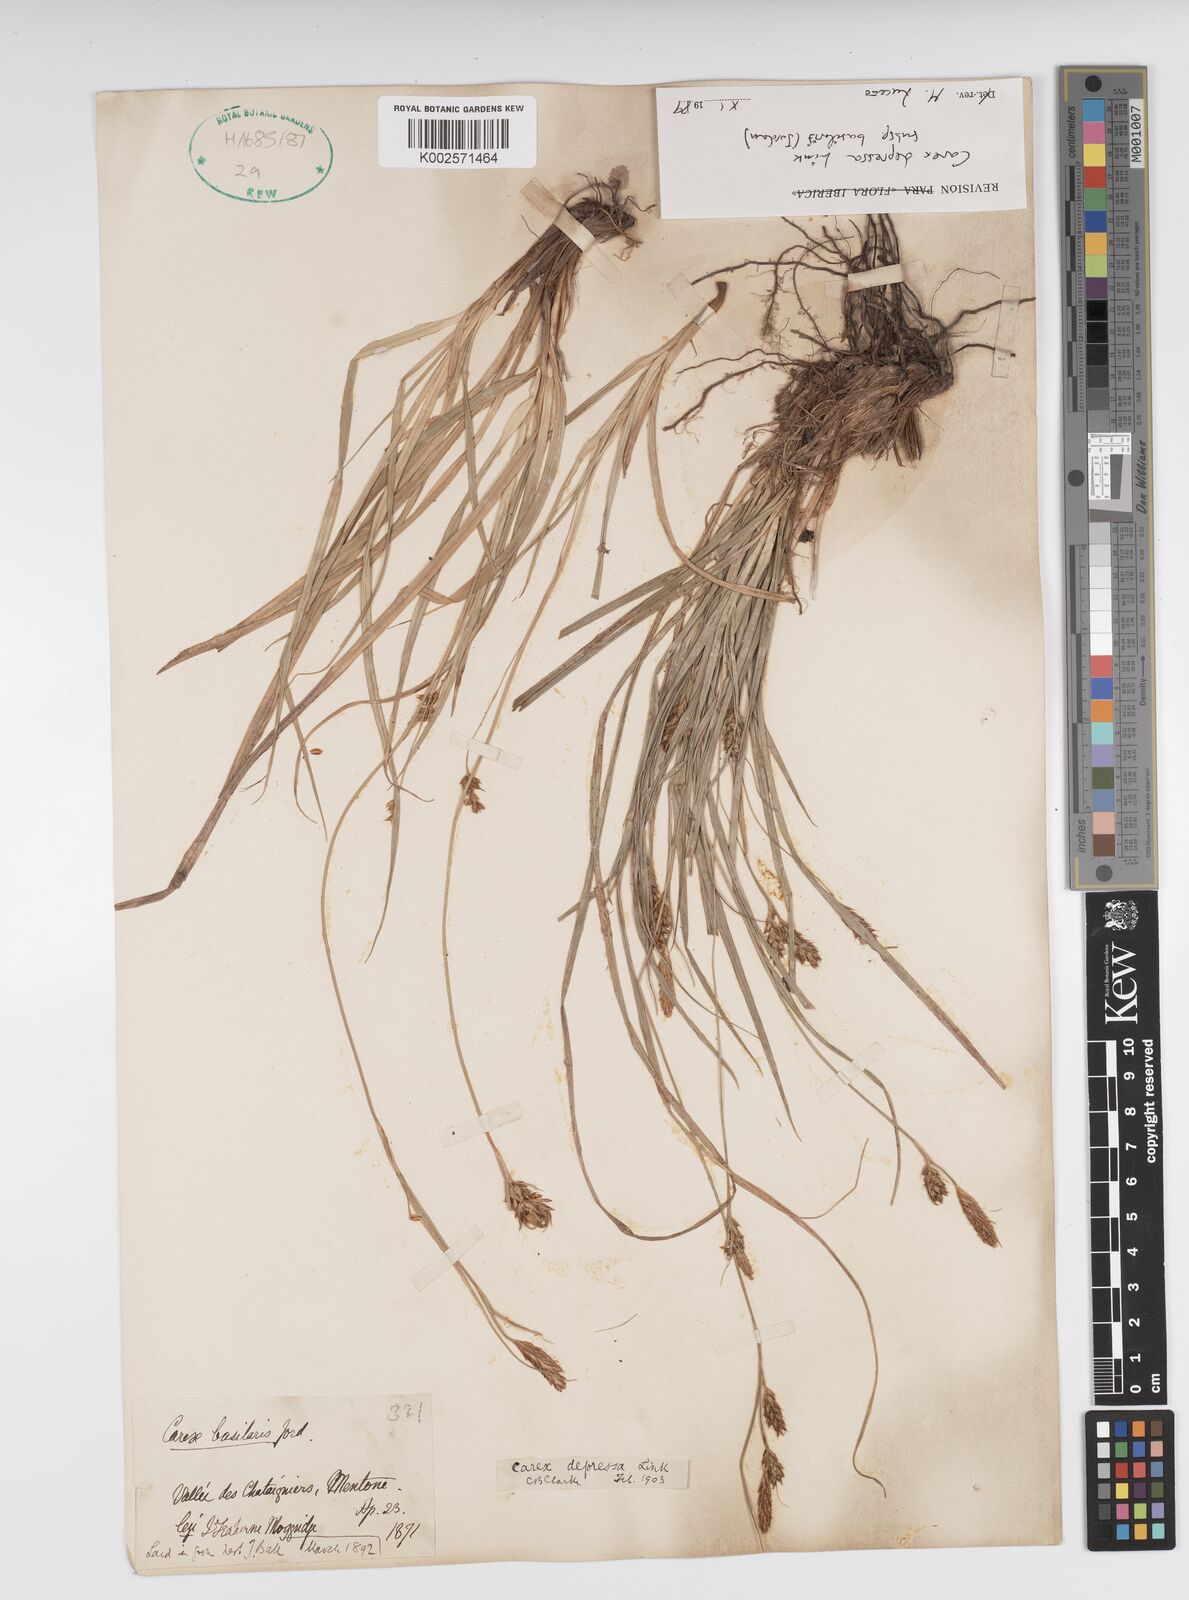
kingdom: Plantae
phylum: Tracheophyta
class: Liliopsida
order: Poales
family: Cyperaceae
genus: Carex
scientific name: Carex depressa
